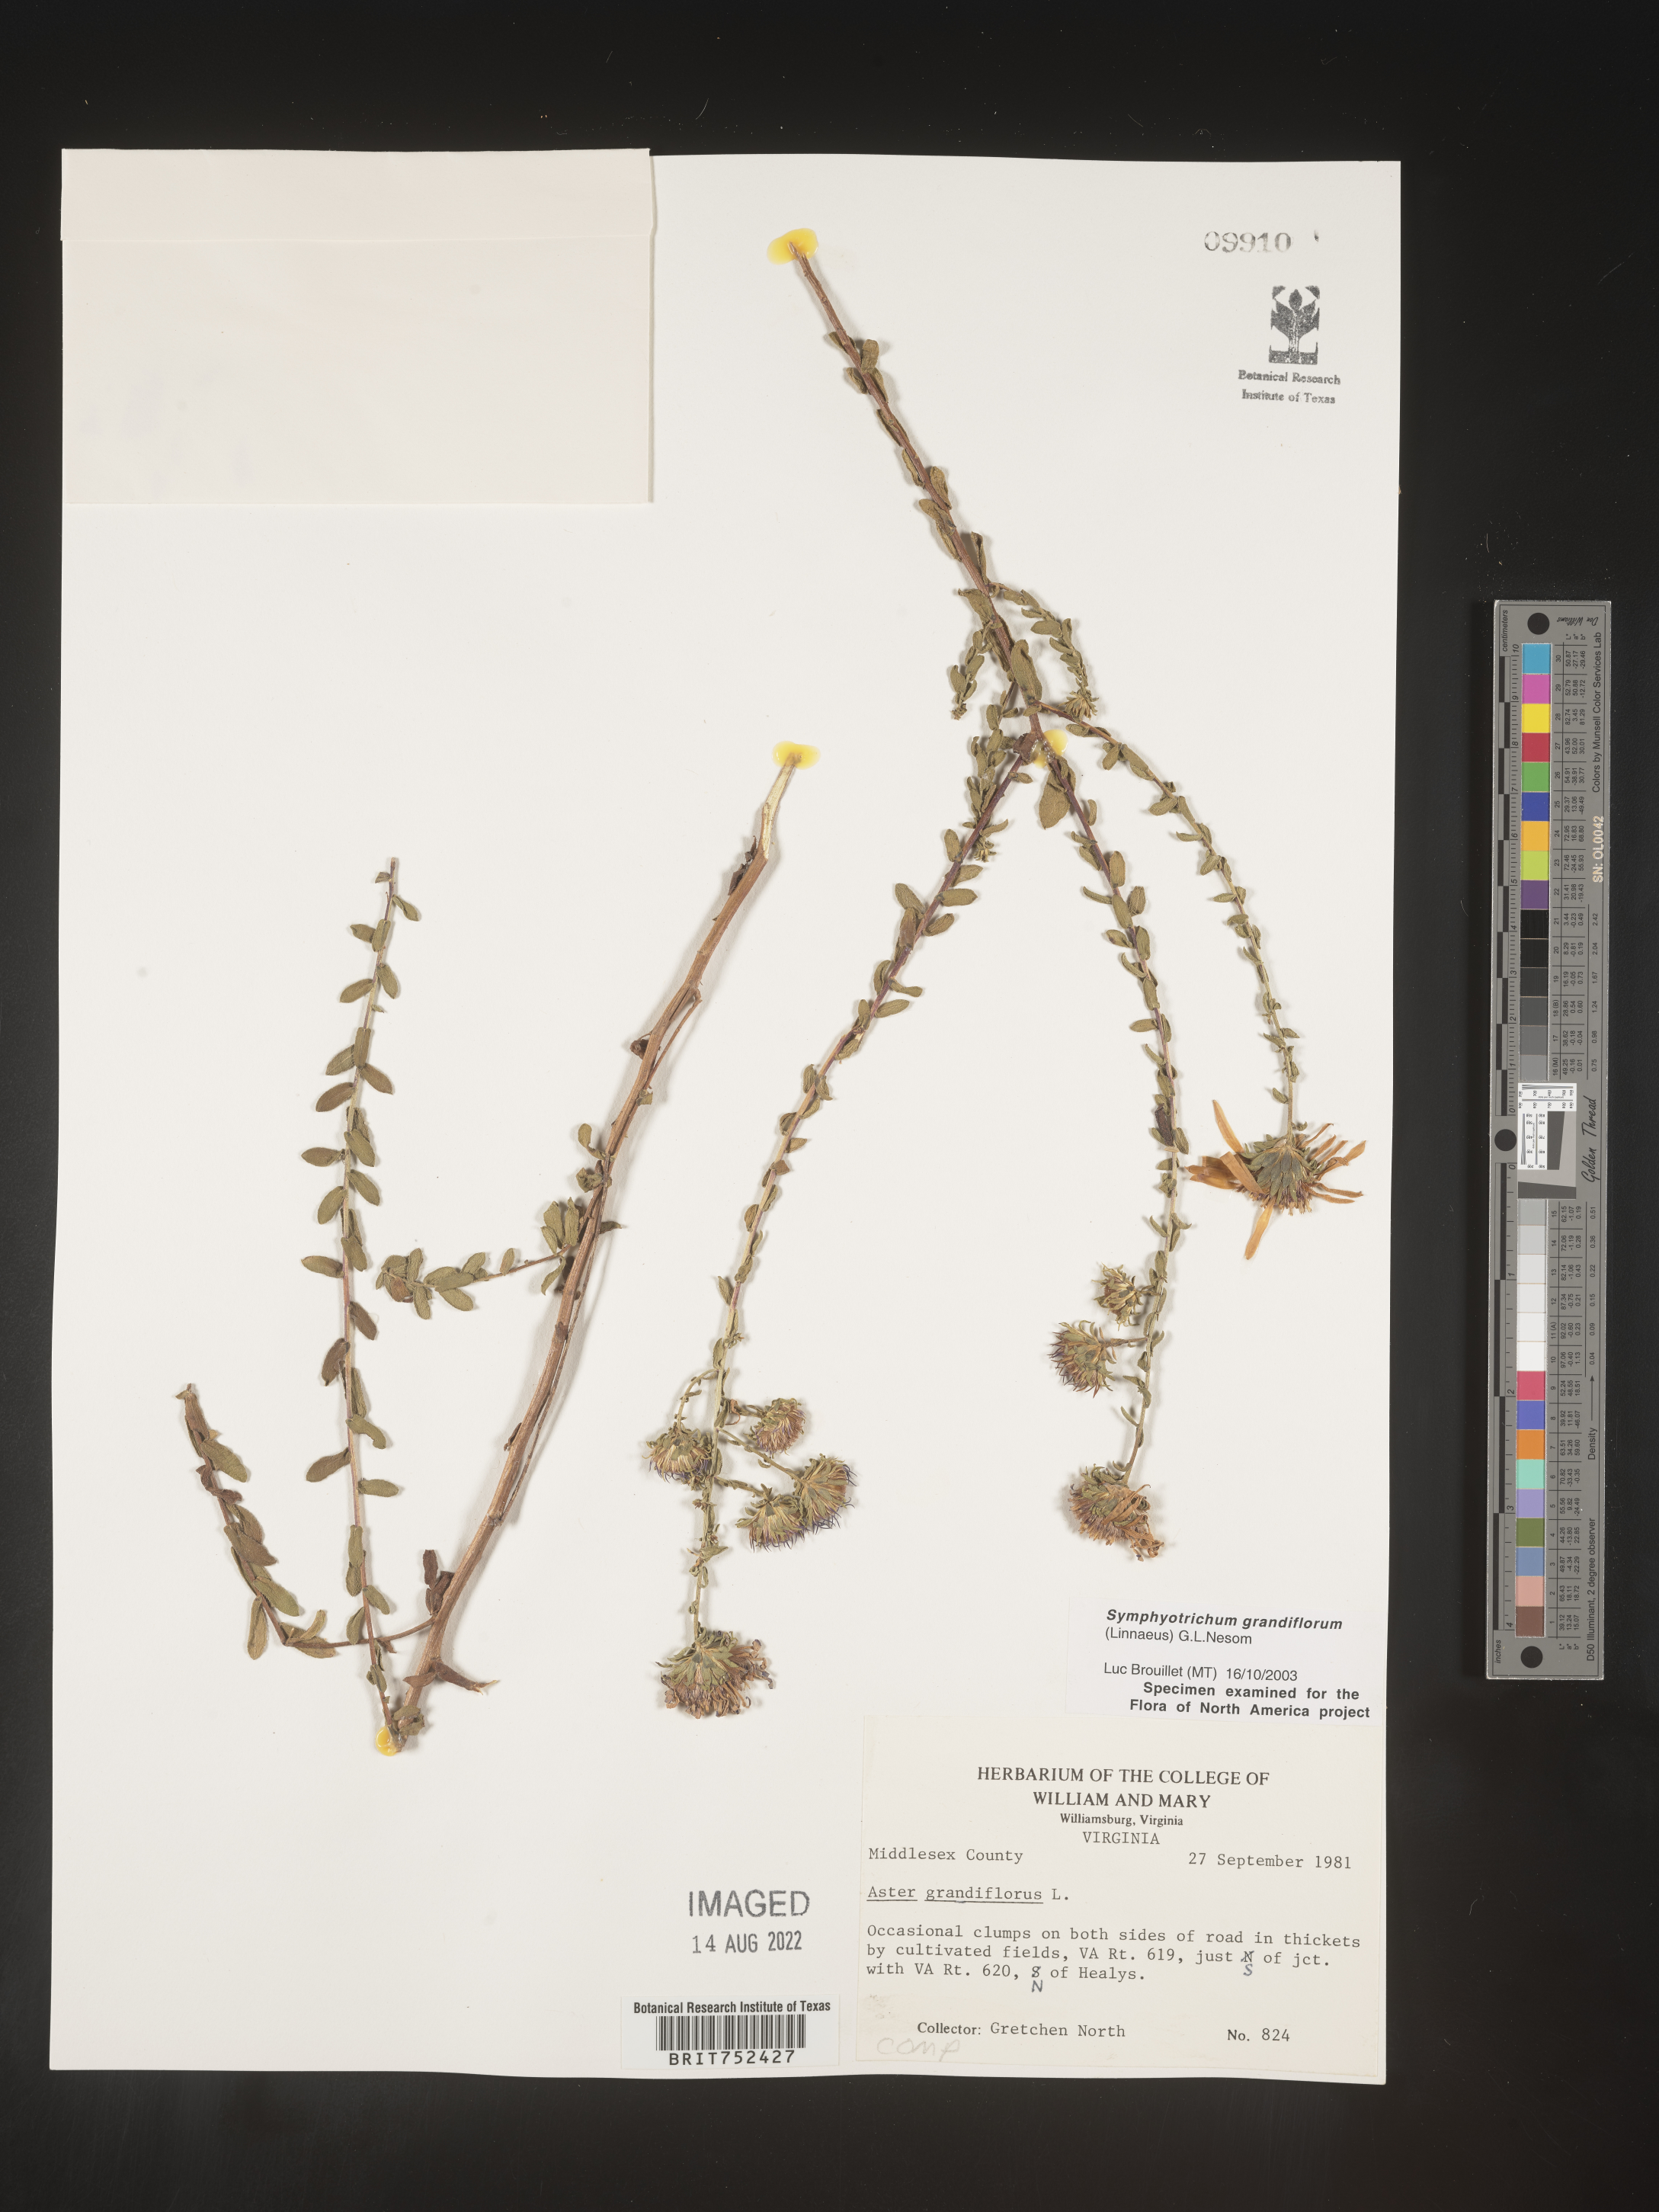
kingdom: Plantae
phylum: Tracheophyta
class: Magnoliopsida
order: Asterales
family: Asteraceae
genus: Symphyotrichum
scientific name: Symphyotrichum grandiflorum
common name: Big-head aster
